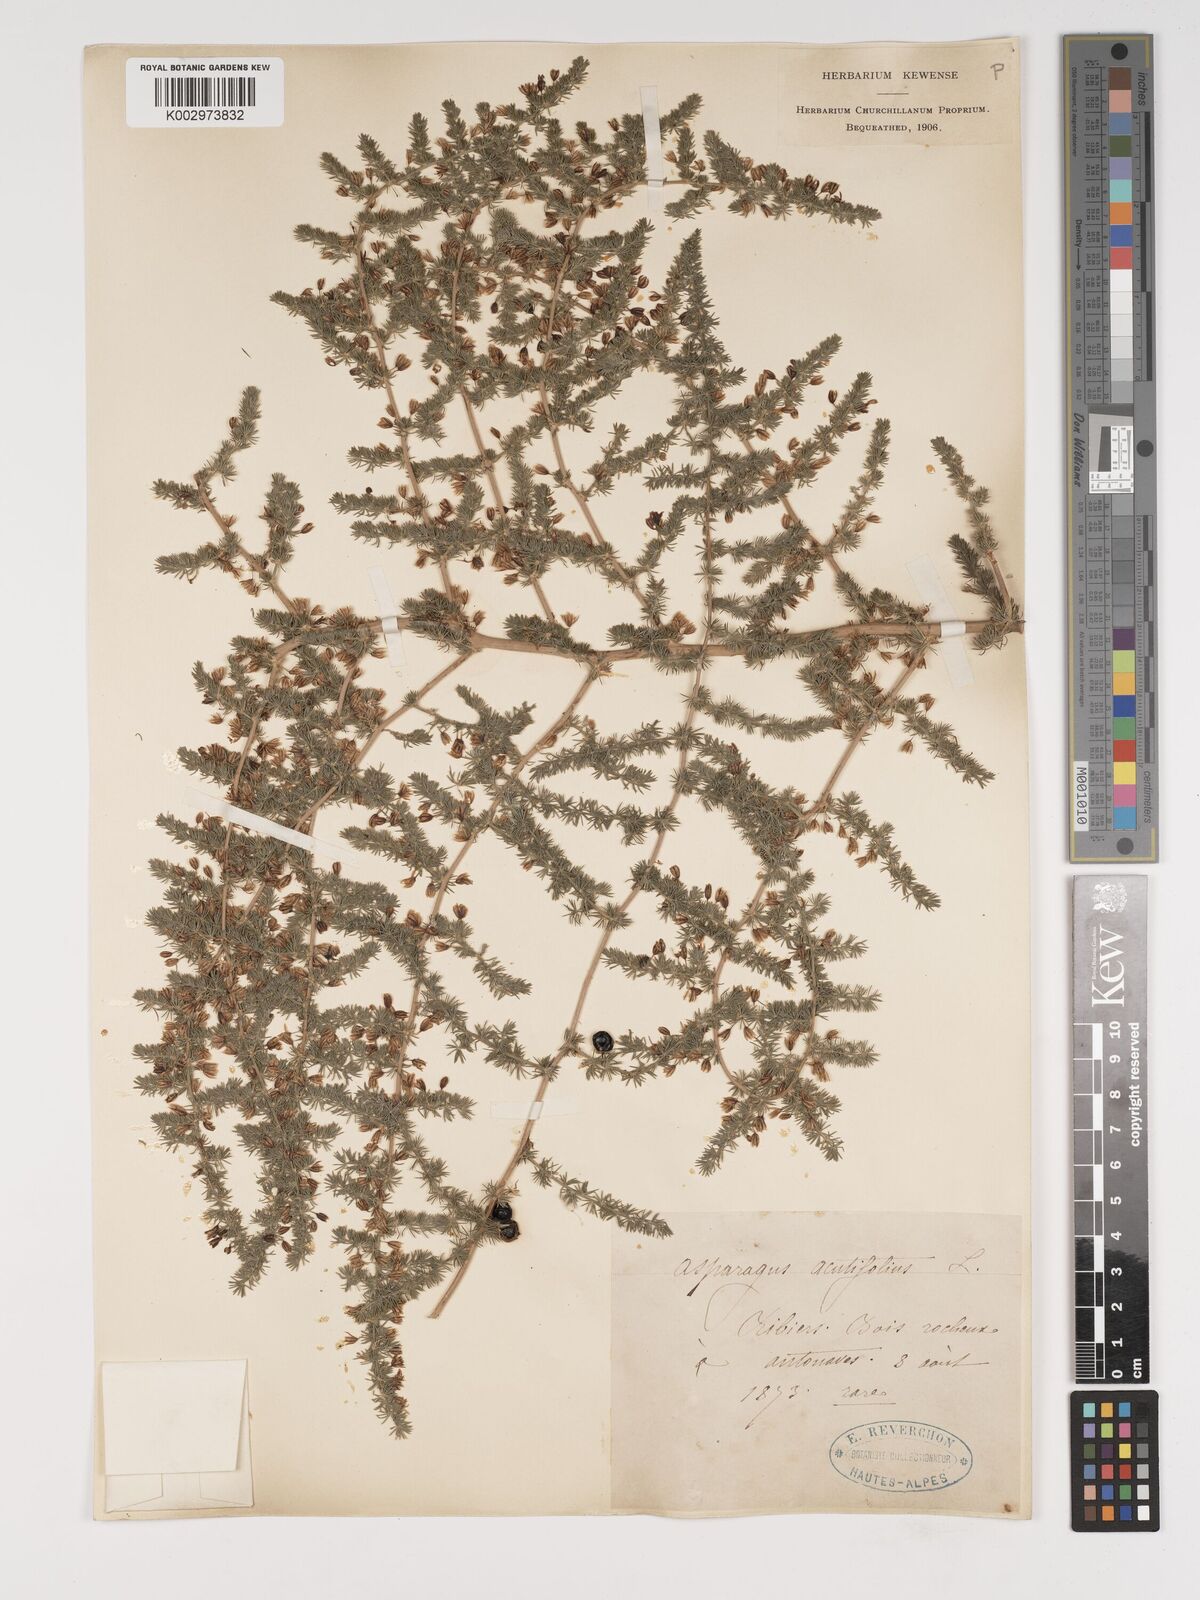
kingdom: Plantae
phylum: Tracheophyta
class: Liliopsida
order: Asparagales
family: Asparagaceae
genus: Asparagus
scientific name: Asparagus aethiopicus
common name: Sprenger's asparagus fern
